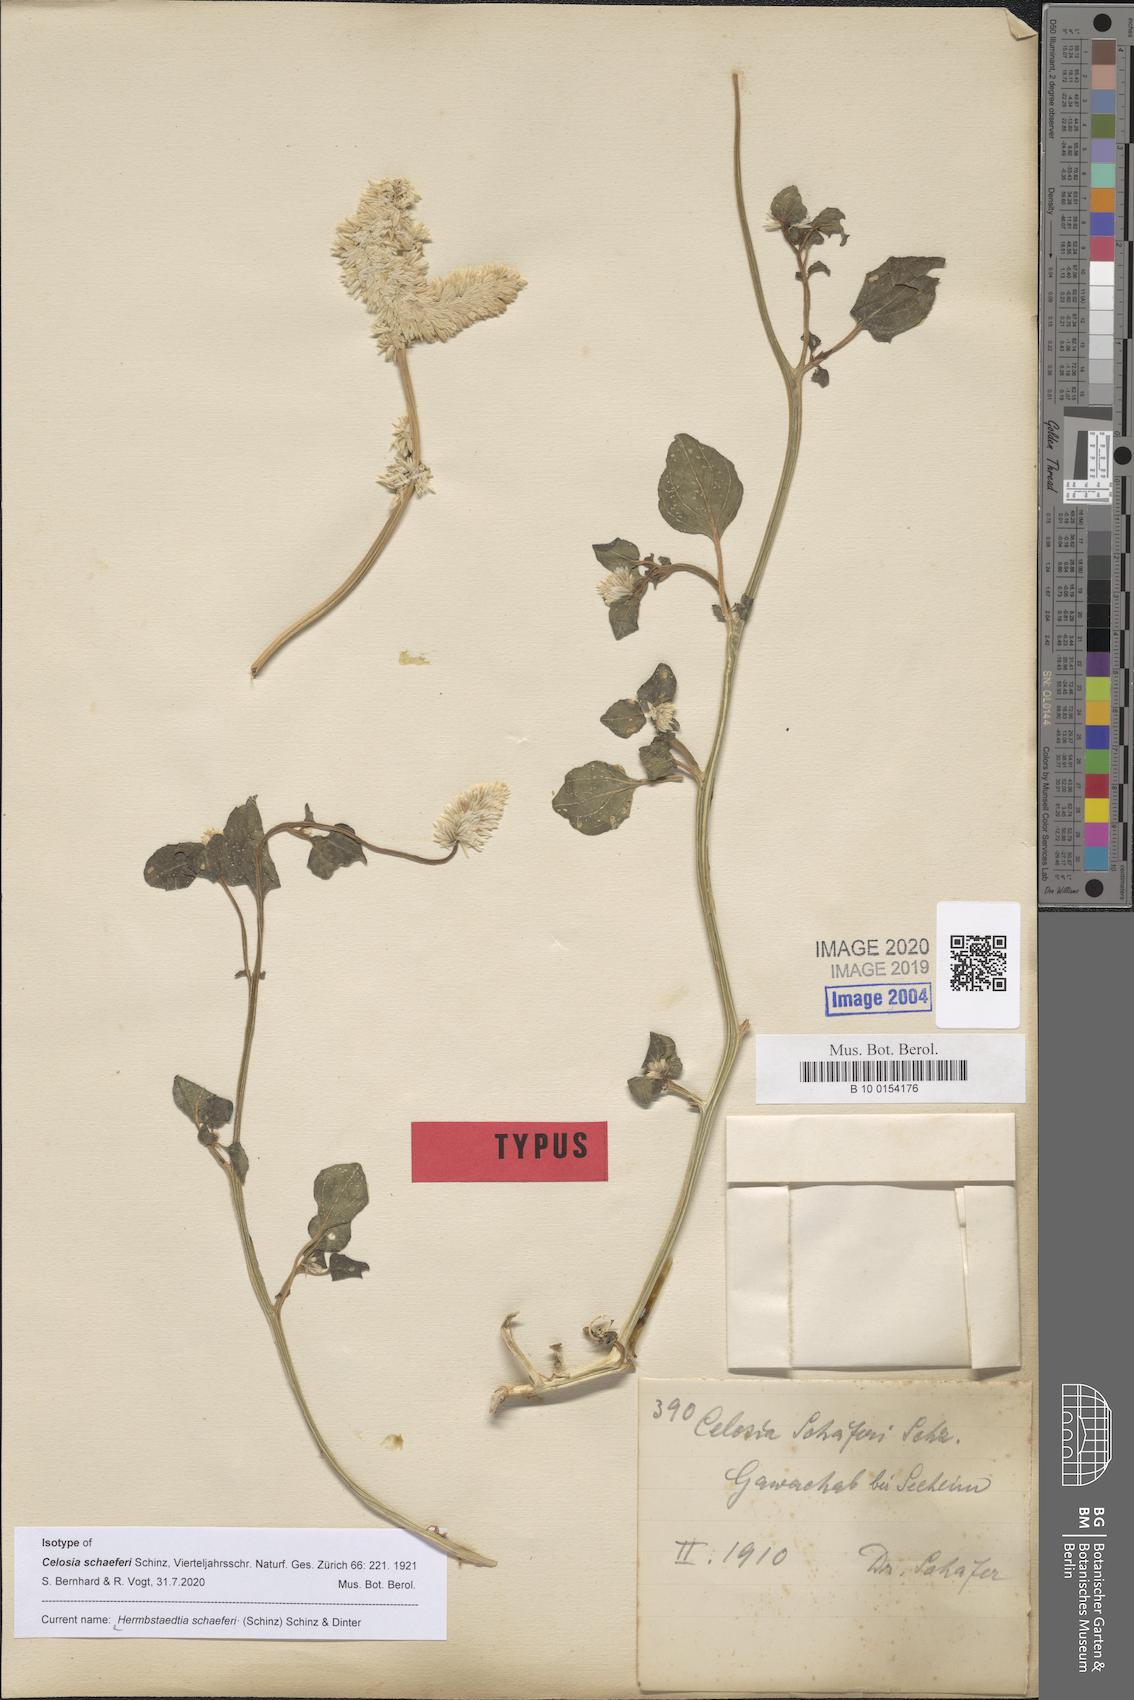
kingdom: Plantae
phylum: Tracheophyta
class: Magnoliopsida
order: Caryophyllales
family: Amaranthaceae
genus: Hermbstaedtia
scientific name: Hermbstaedtia schaeferi
